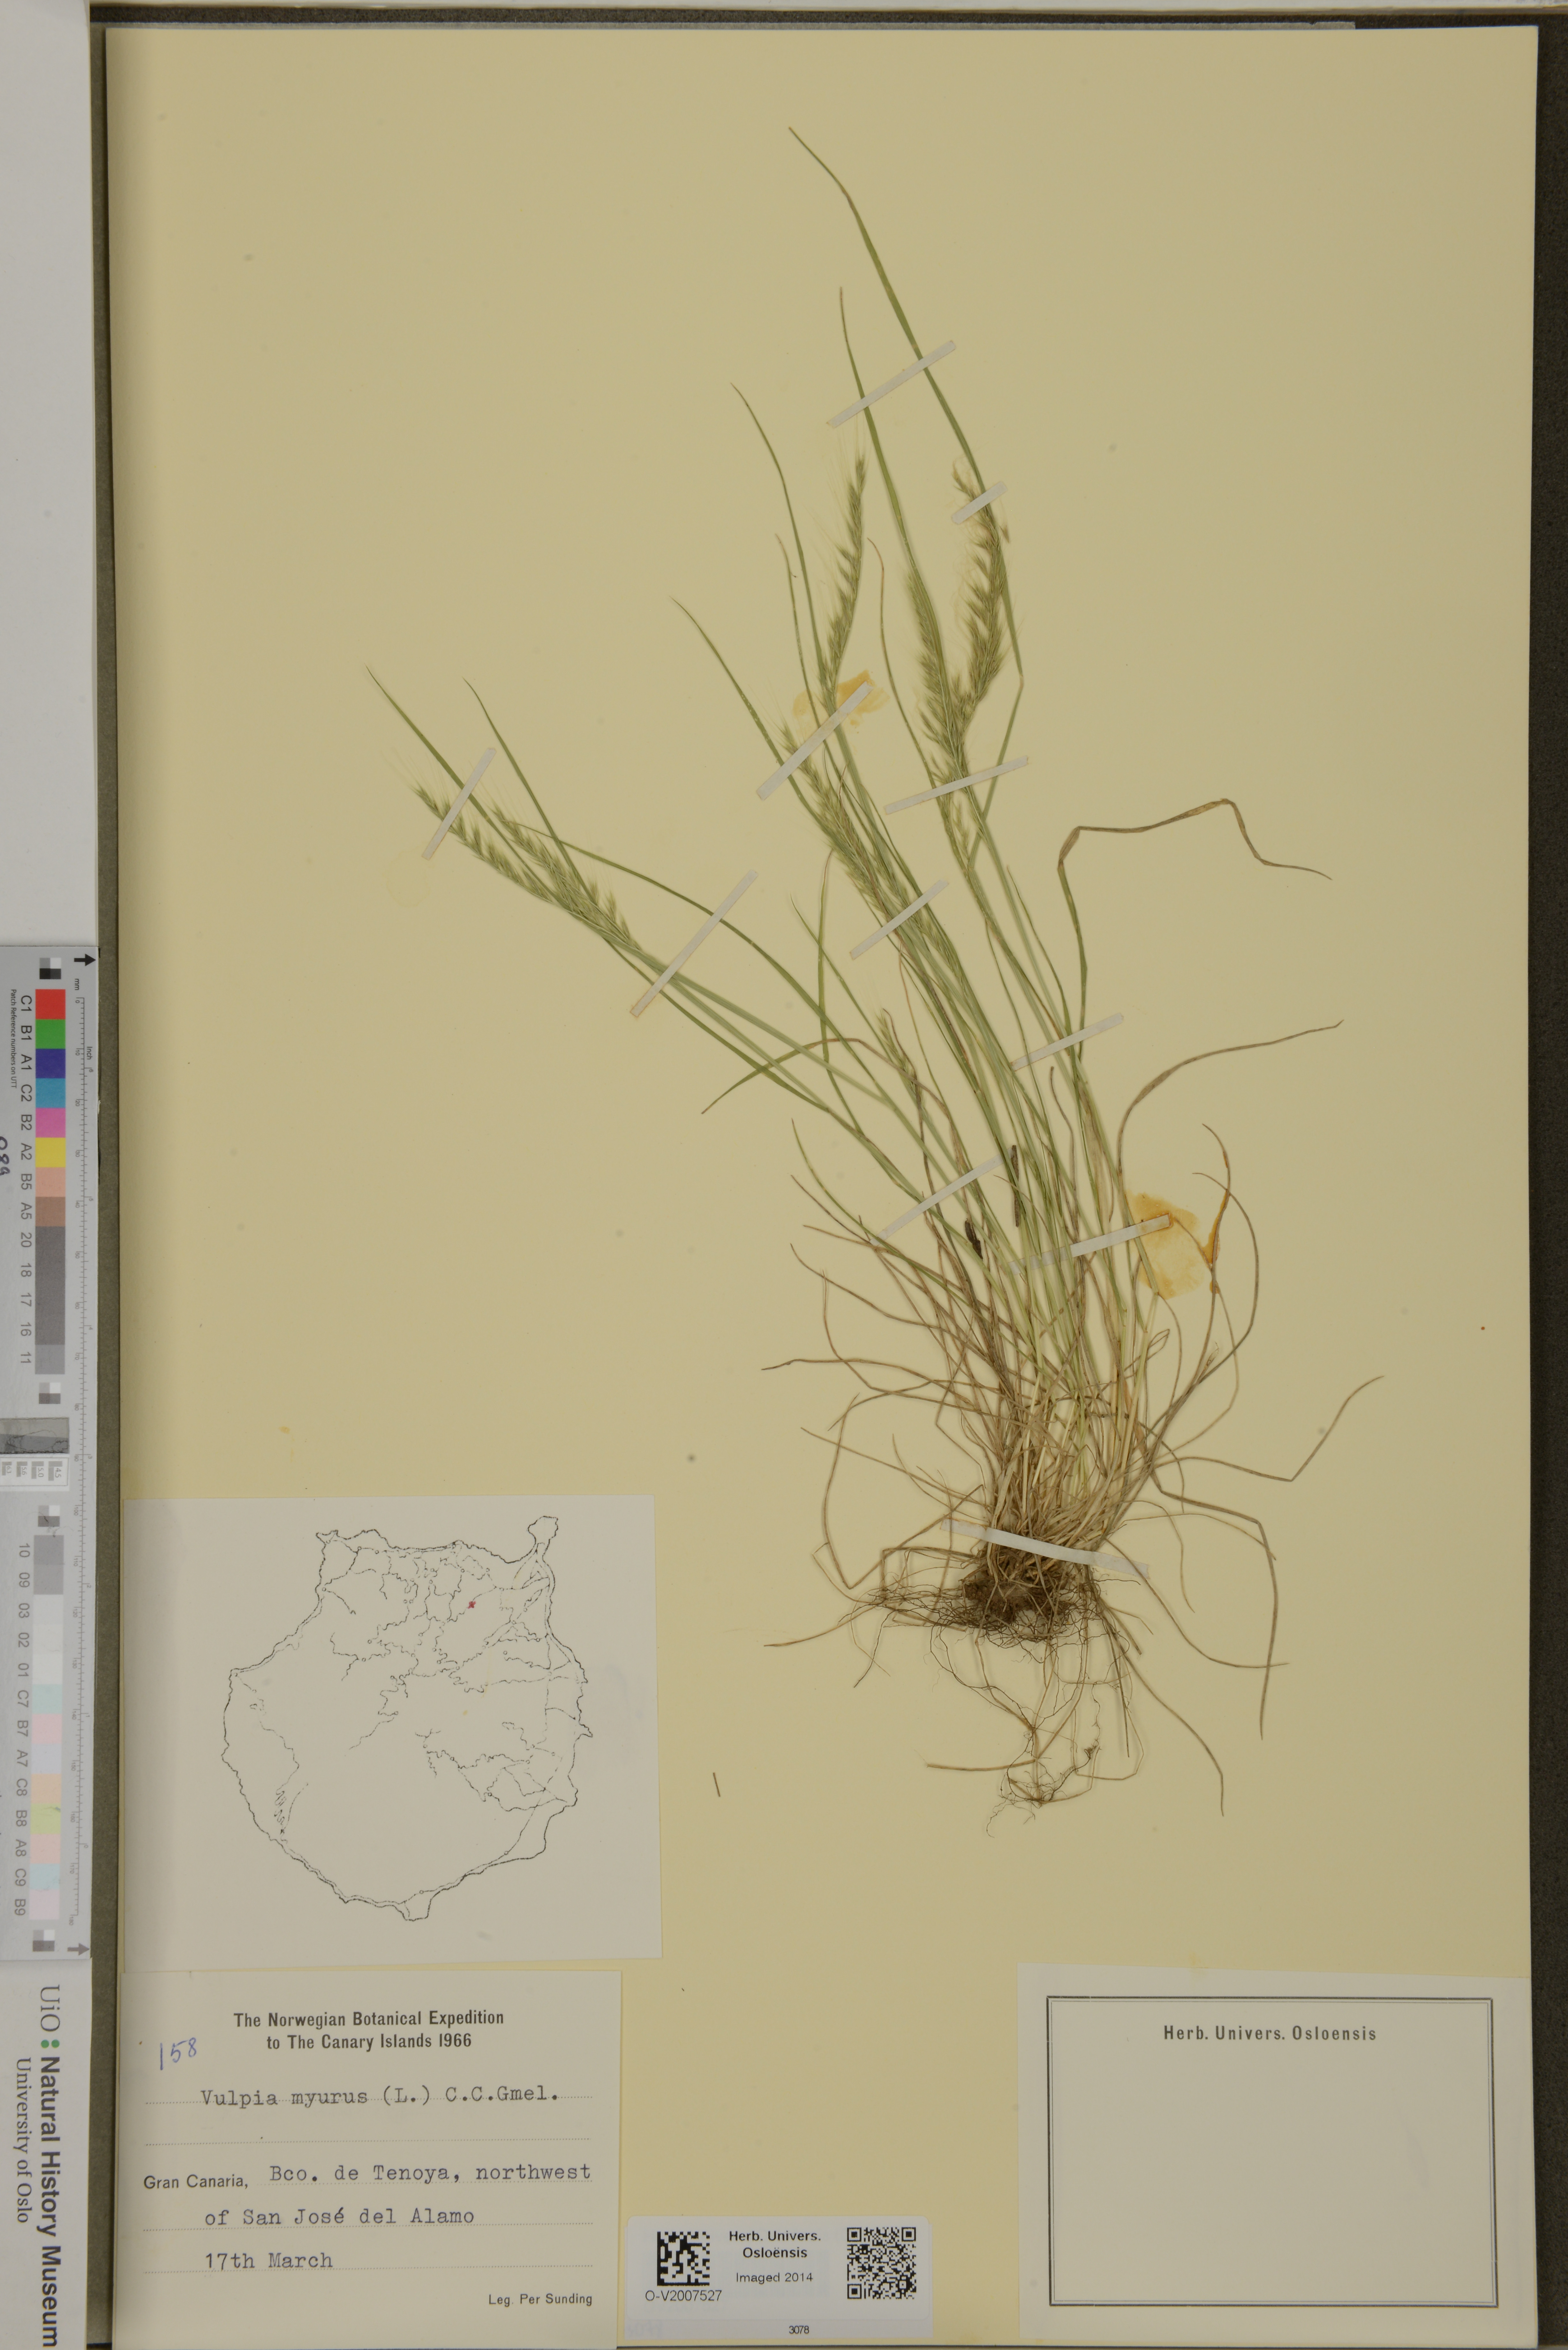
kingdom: Plantae
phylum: Tracheophyta
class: Liliopsida
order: Poales
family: Poaceae
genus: Festuca
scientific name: Festuca myuros
